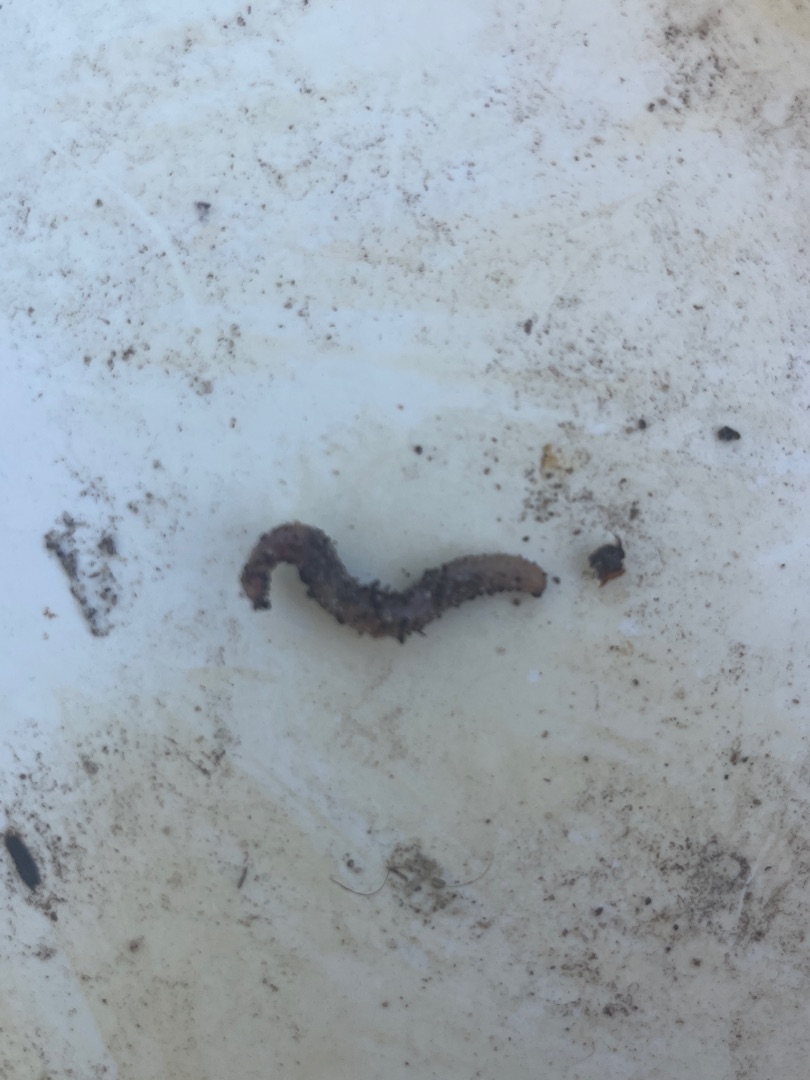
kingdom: Animalia
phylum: Annelida
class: Clitellata
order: Crassiclitellata
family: Lumbricidae
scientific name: Lumbricidae
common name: Regnorme
